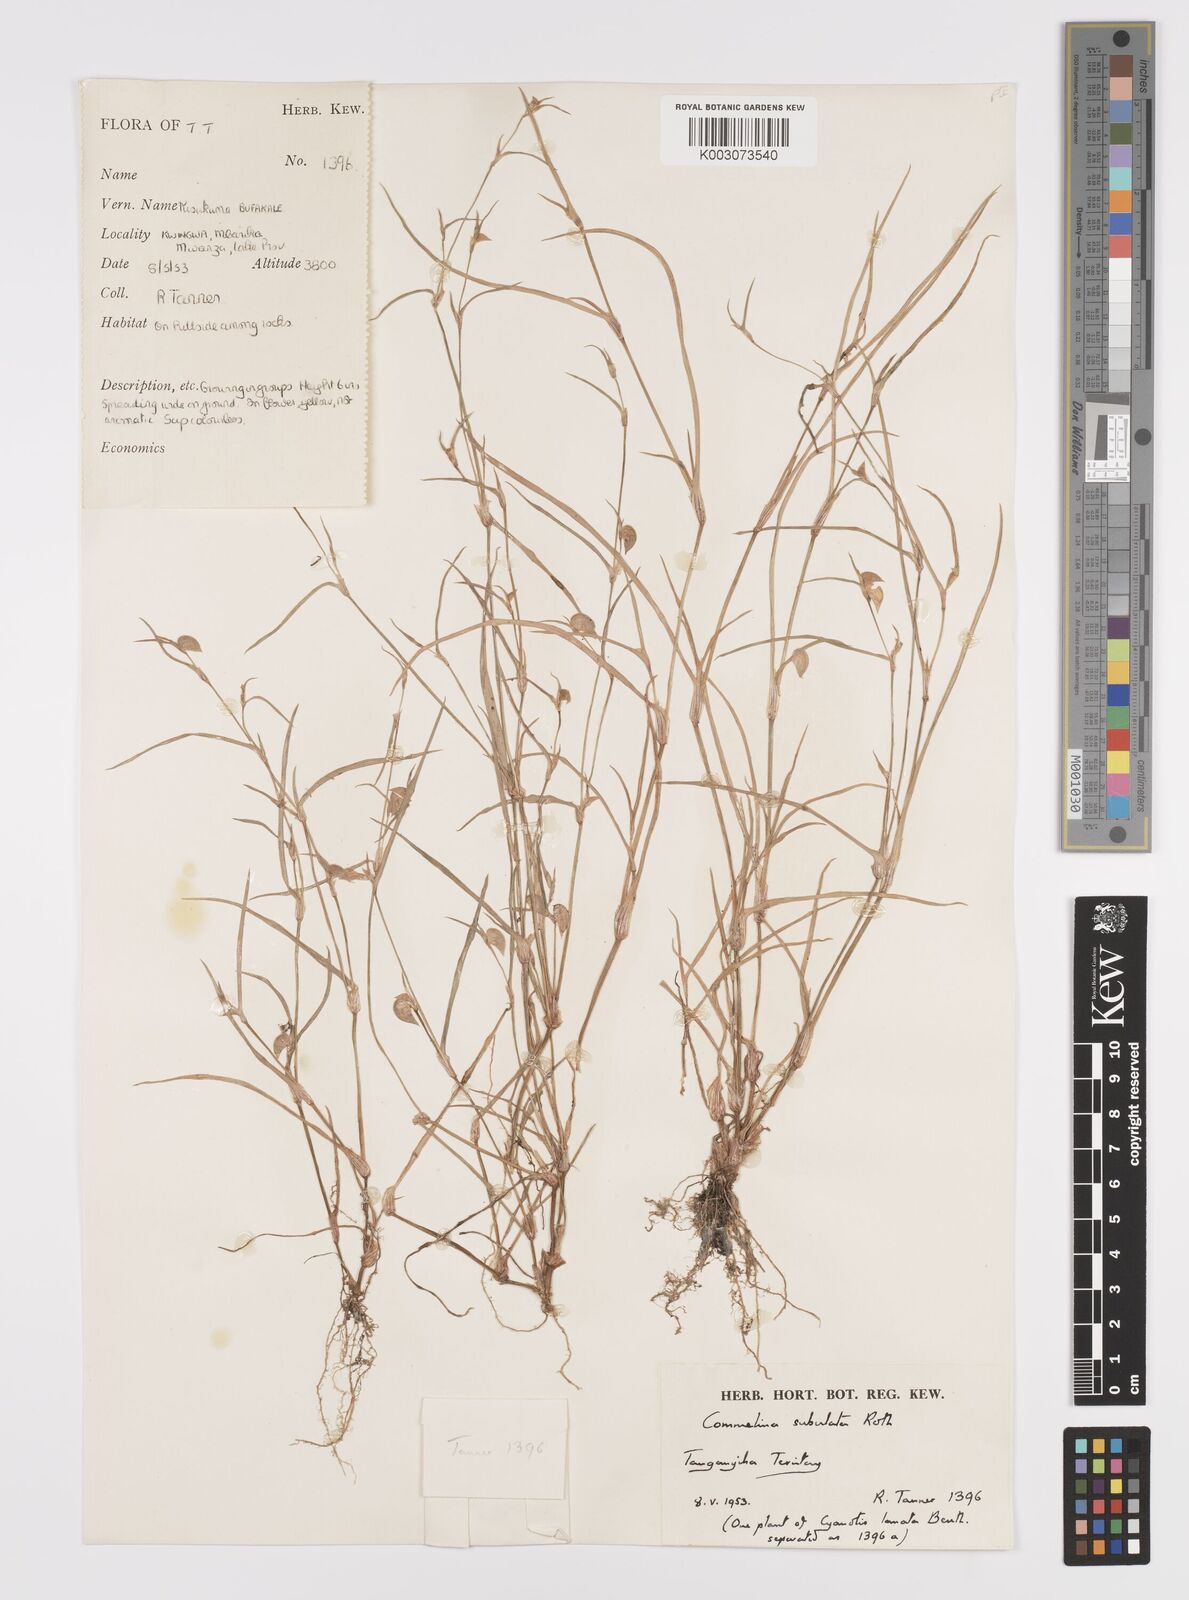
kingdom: Plantae
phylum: Tracheophyta
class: Liliopsida
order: Commelinales
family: Commelinaceae
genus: Commelina
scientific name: Commelina subulata
